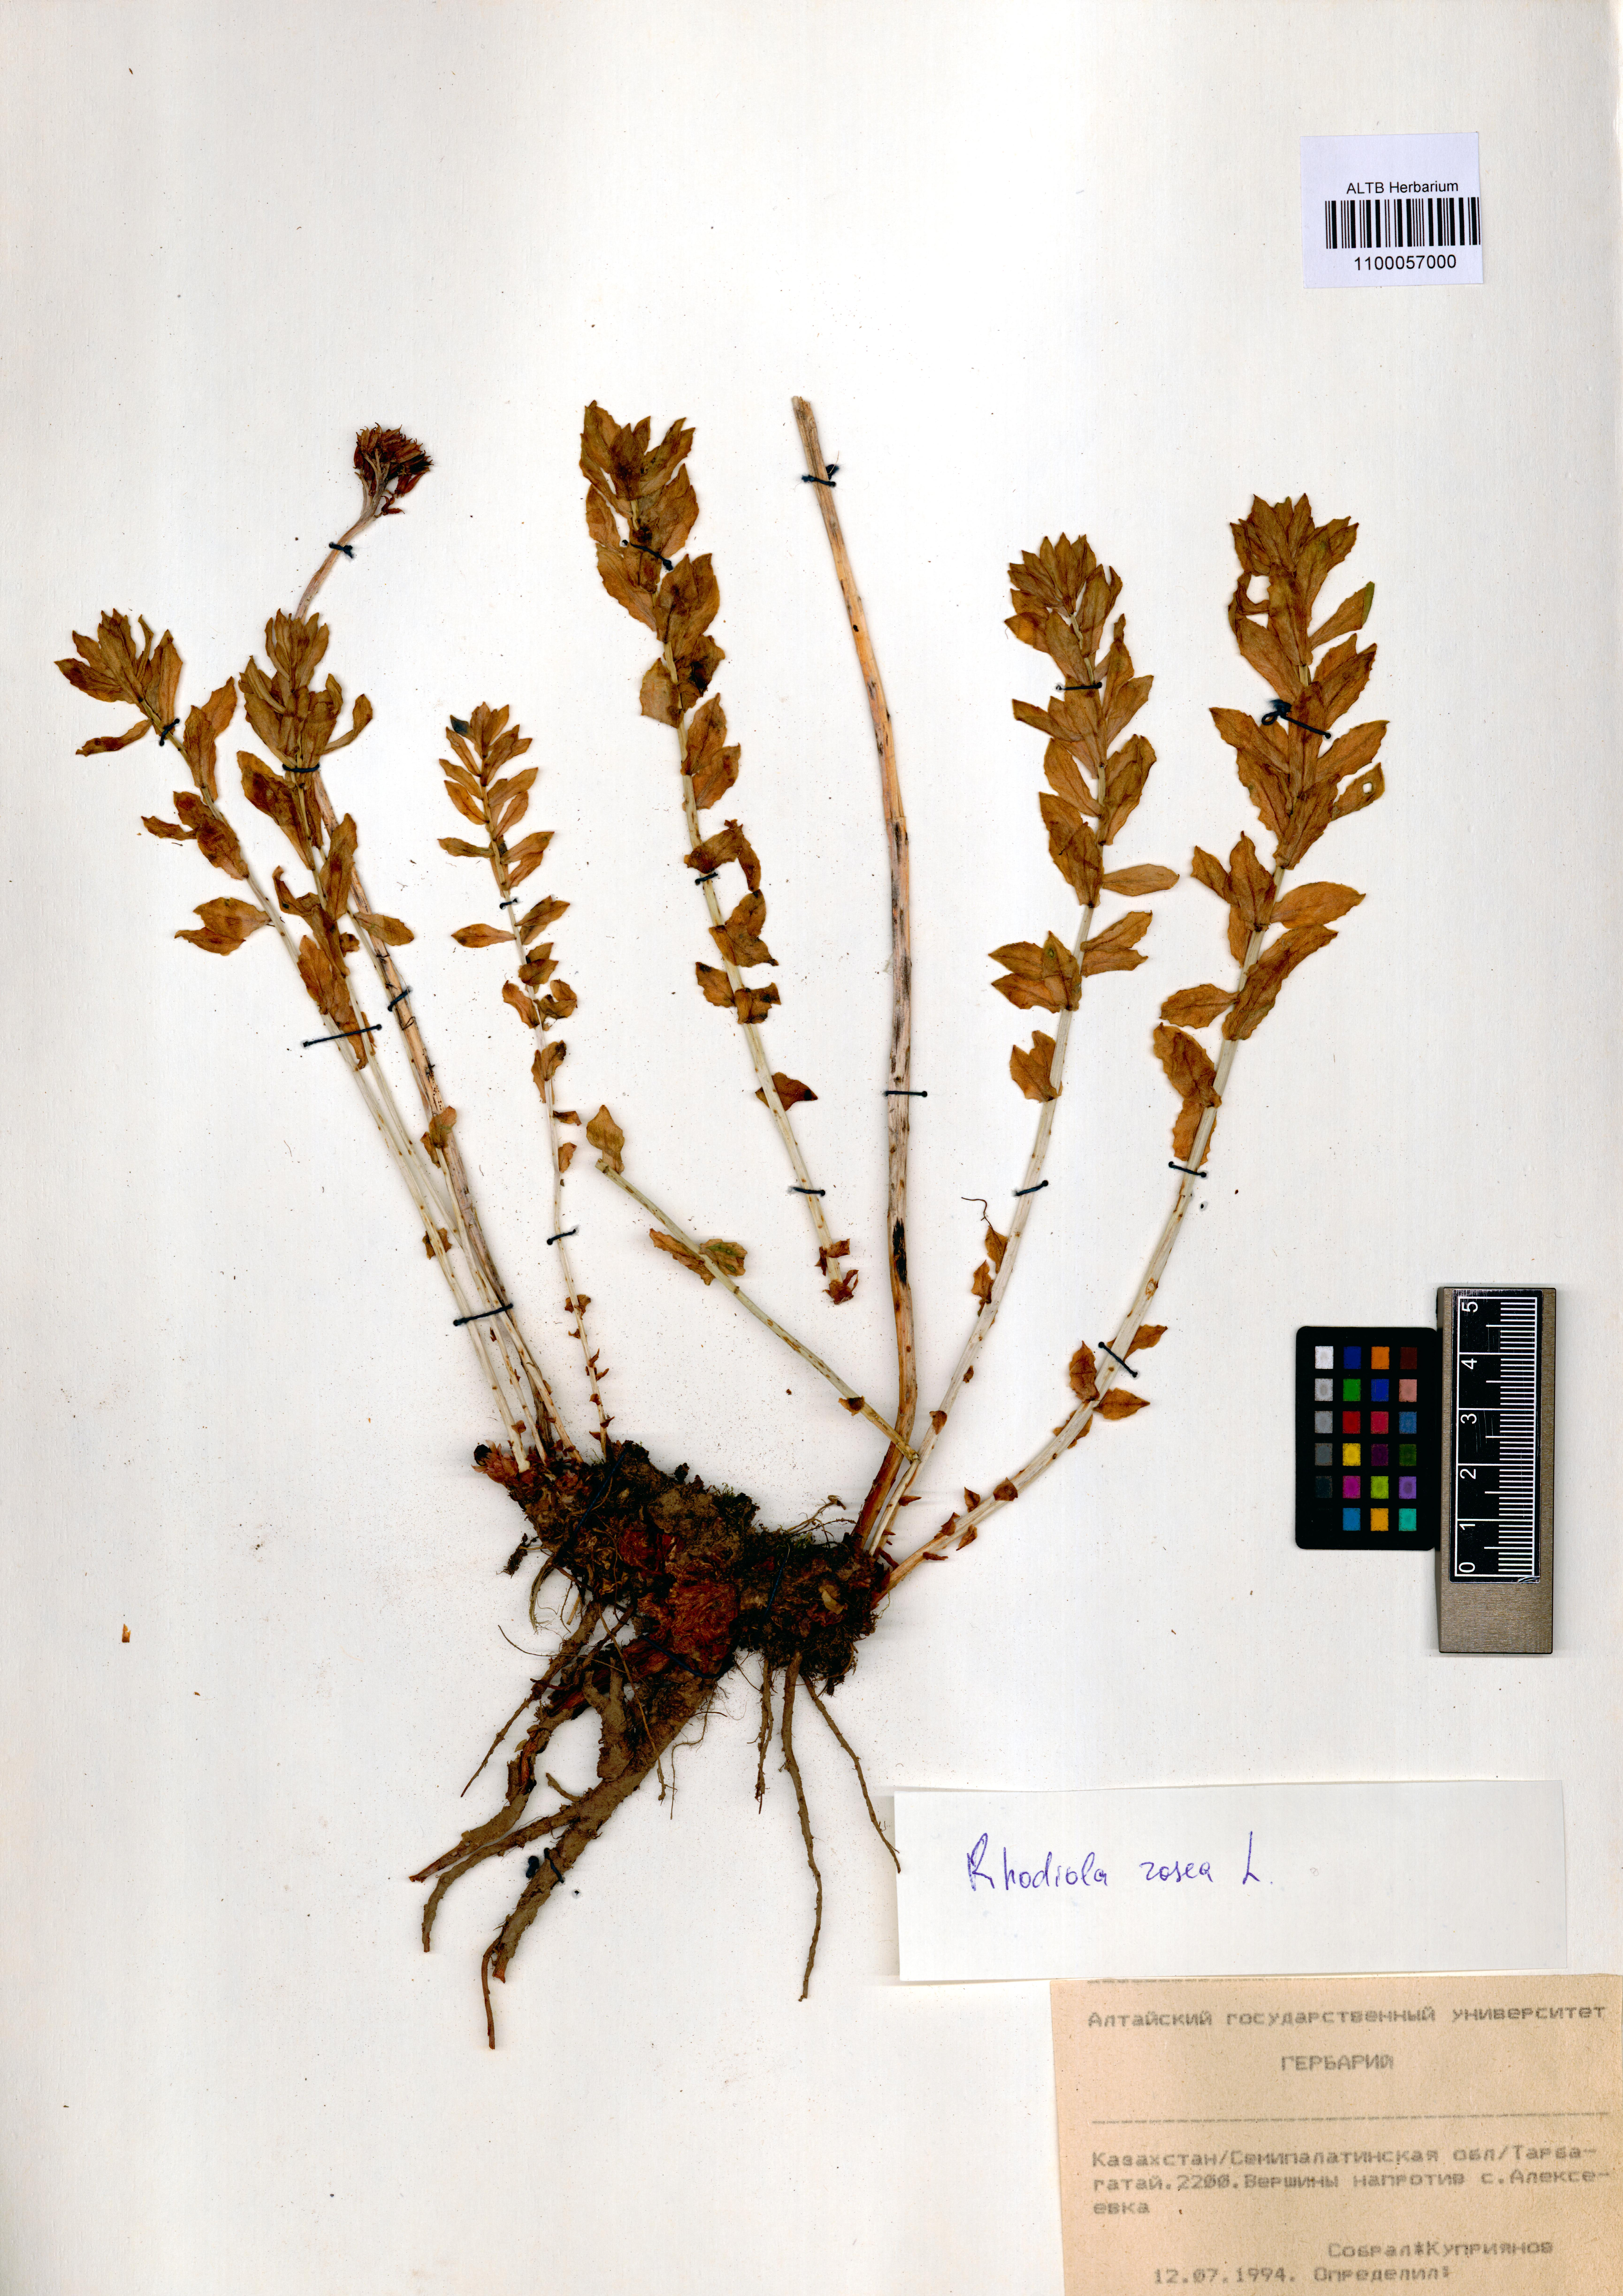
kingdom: Plantae
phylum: Tracheophyta
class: Magnoliopsida
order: Saxifragales
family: Crassulaceae
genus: Rhodiola
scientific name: Rhodiola rosea
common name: Roseroot
